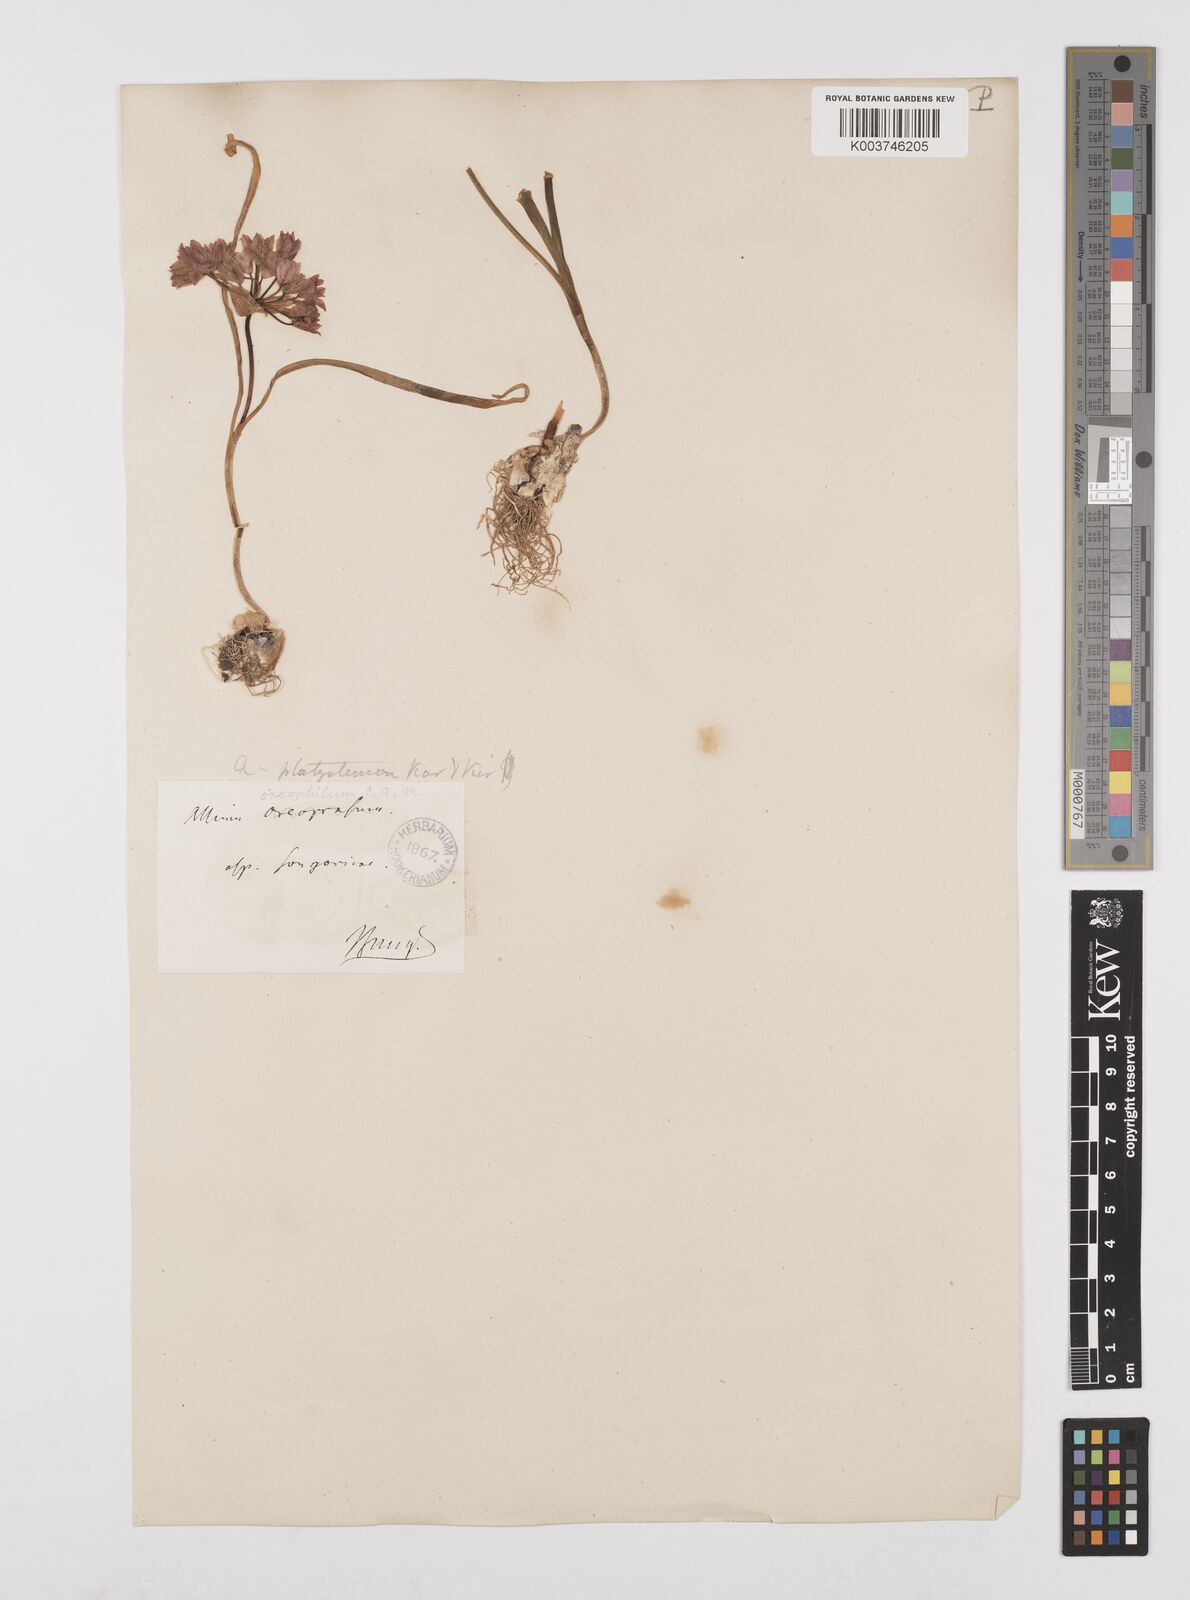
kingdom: Plantae
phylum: Tracheophyta
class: Liliopsida
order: Asparagales
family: Amaryllidaceae
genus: Allium
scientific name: Allium oreophilum
